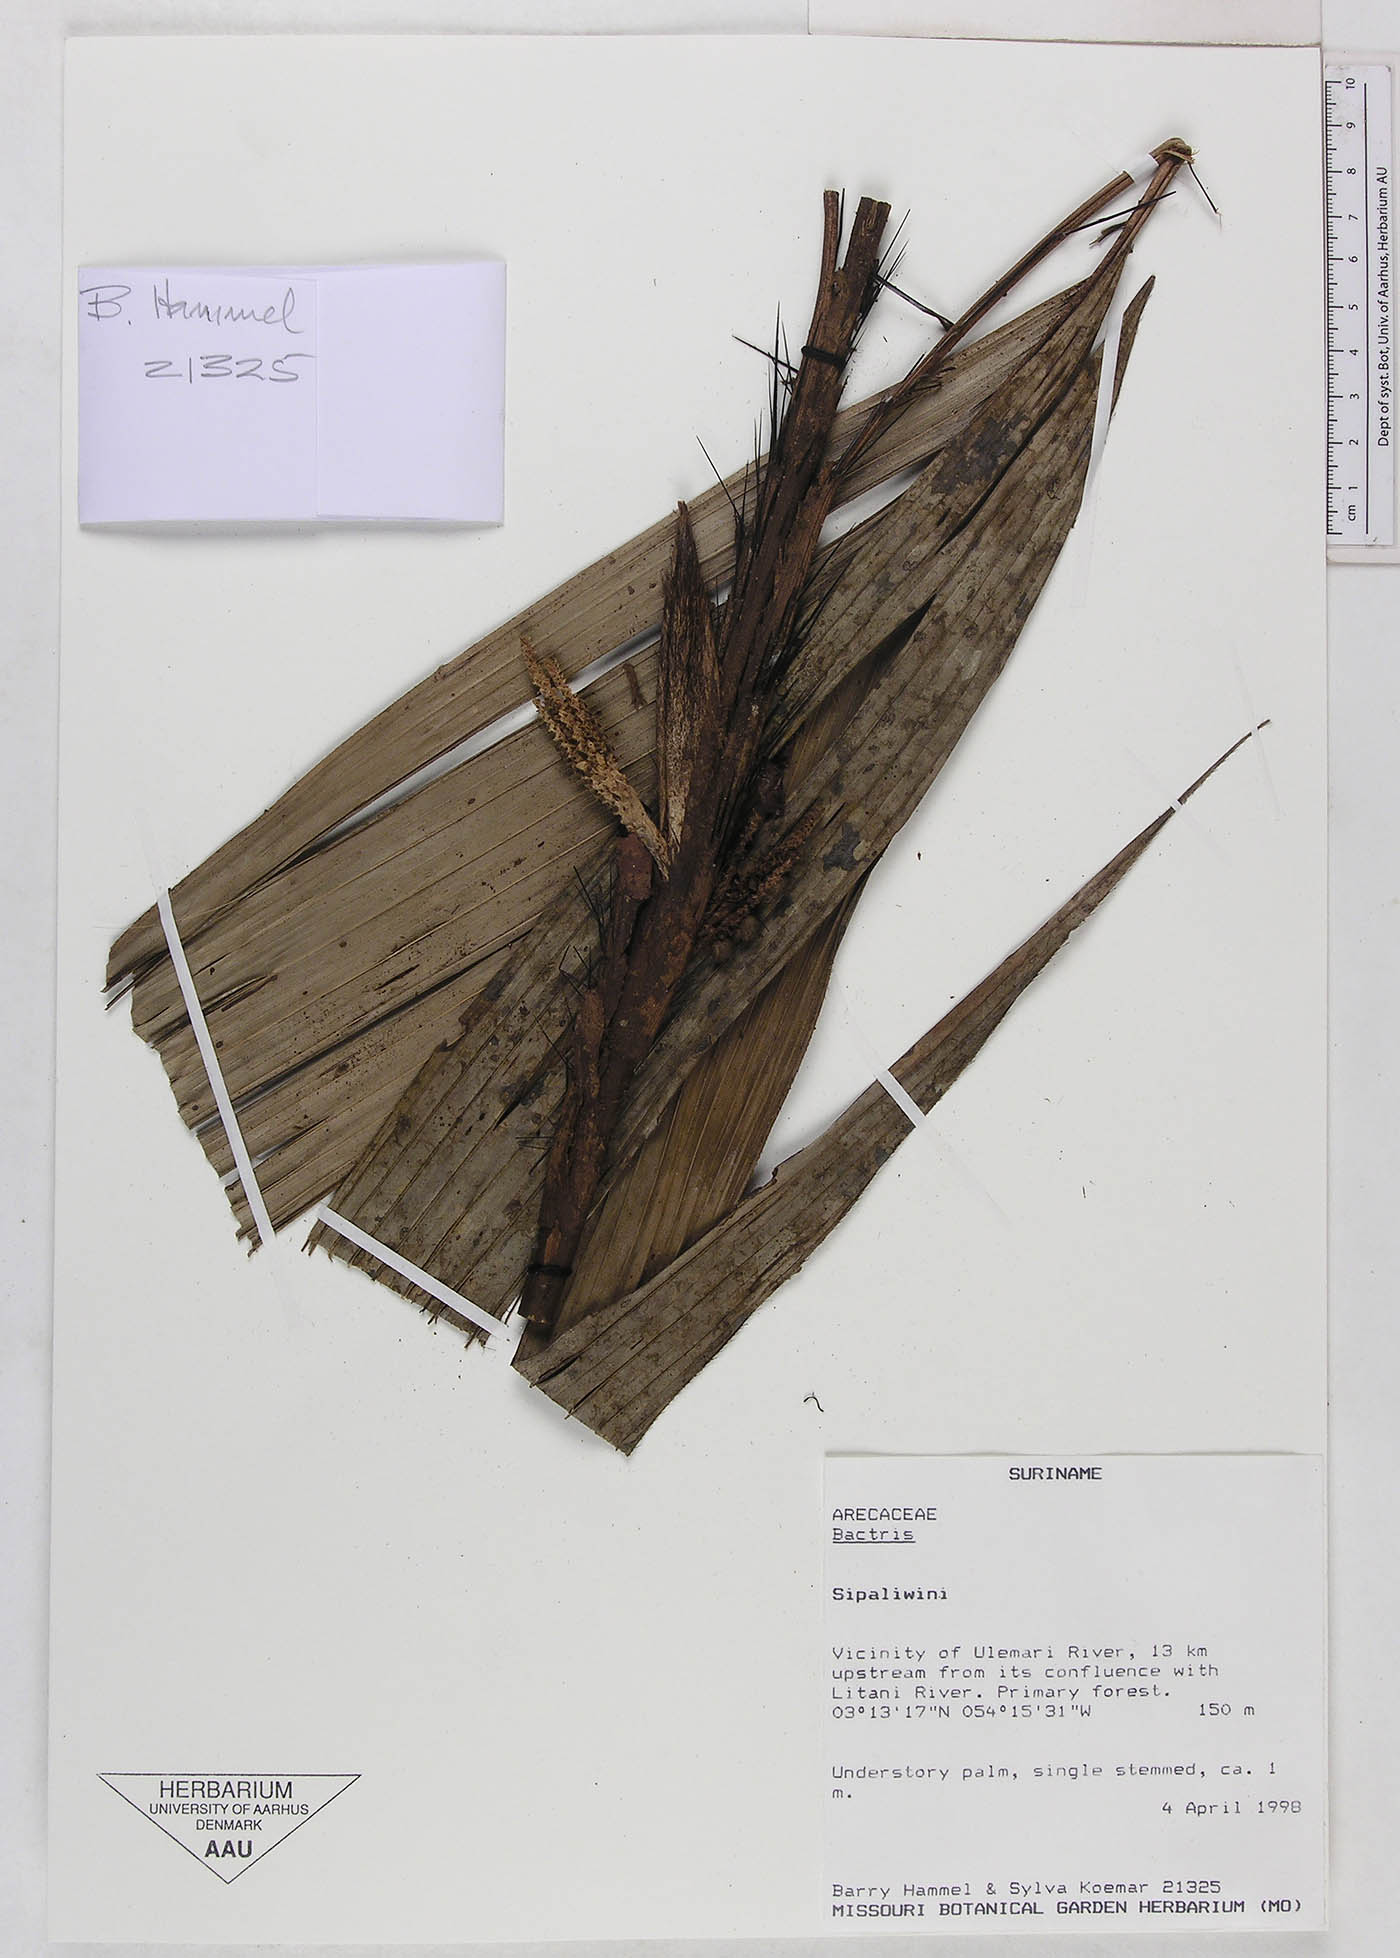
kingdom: Plantae
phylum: Tracheophyta
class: Liliopsida
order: Arecales
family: Arecaceae
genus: Bactris
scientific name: Bactris
